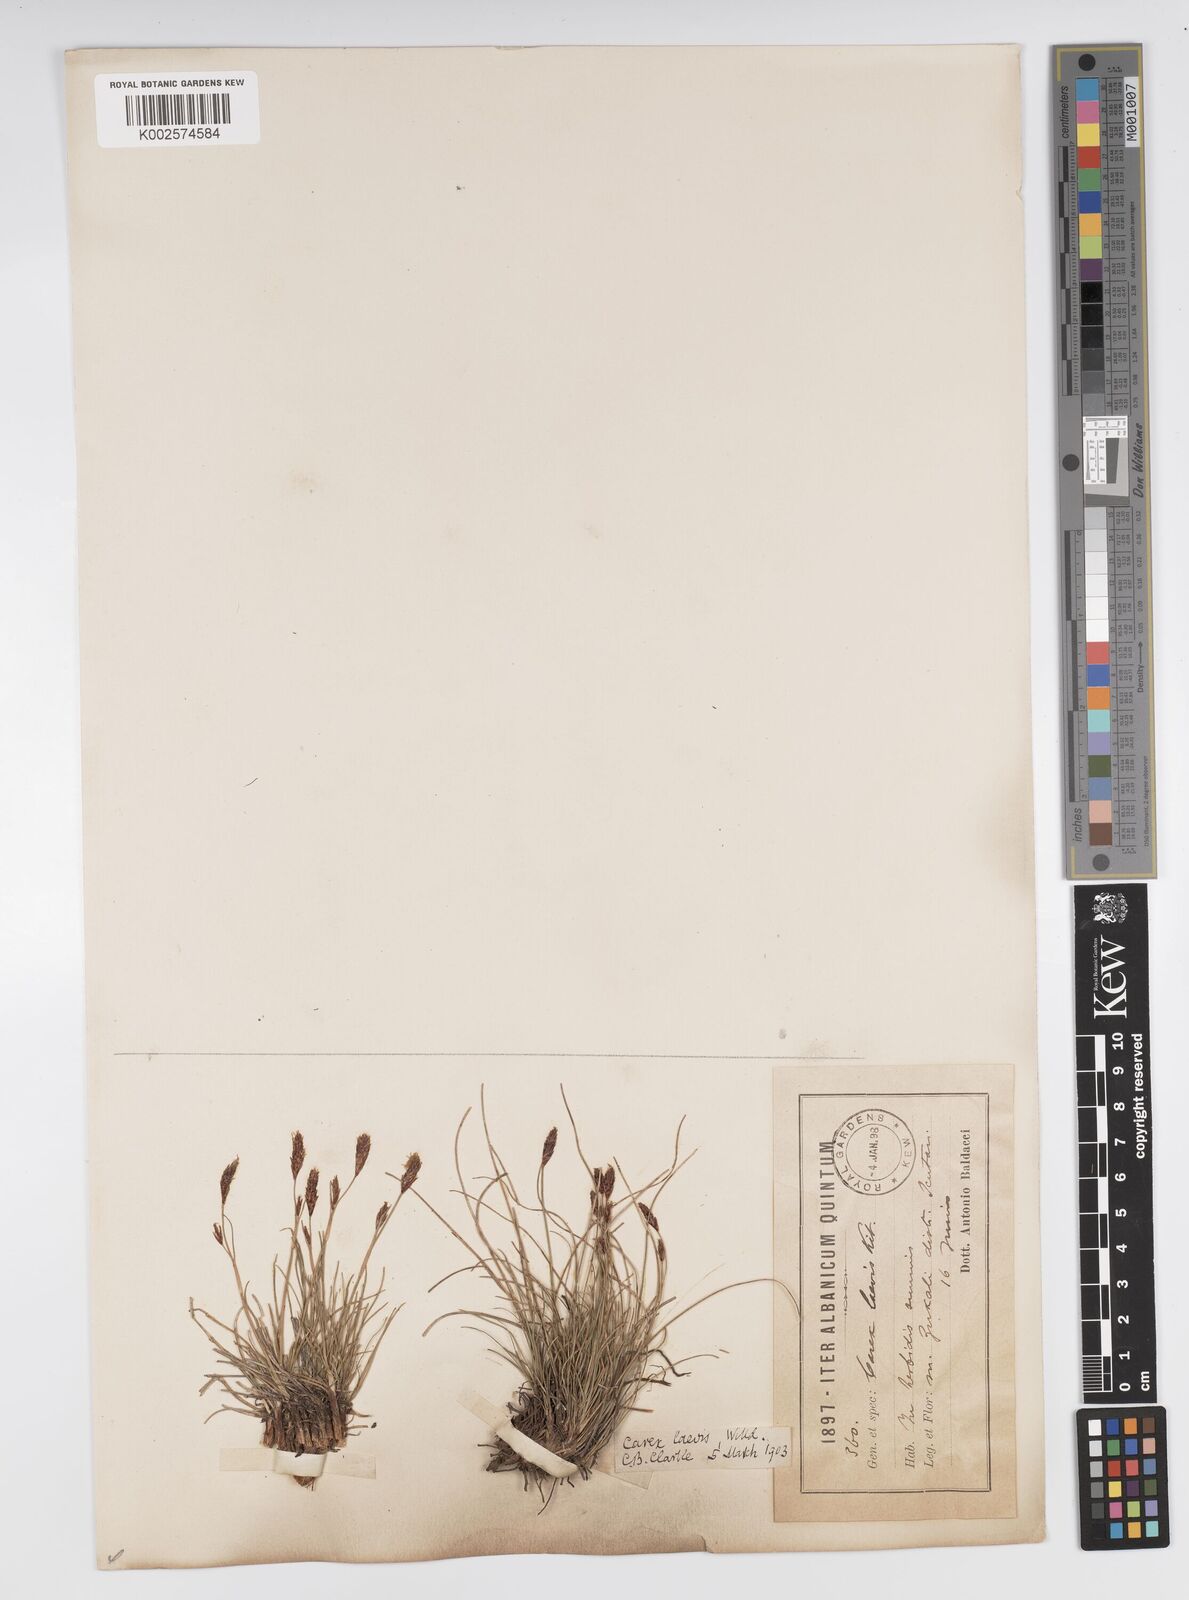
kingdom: Plantae
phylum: Tracheophyta
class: Liliopsida
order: Poales
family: Cyperaceae
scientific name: Cyperaceae
